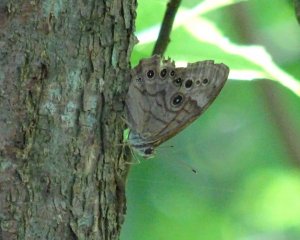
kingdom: Animalia
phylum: Arthropoda
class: Insecta
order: Lepidoptera
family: Nymphalidae
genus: Lethe
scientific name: Lethe anthedon
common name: Northern Pearly-Eye
